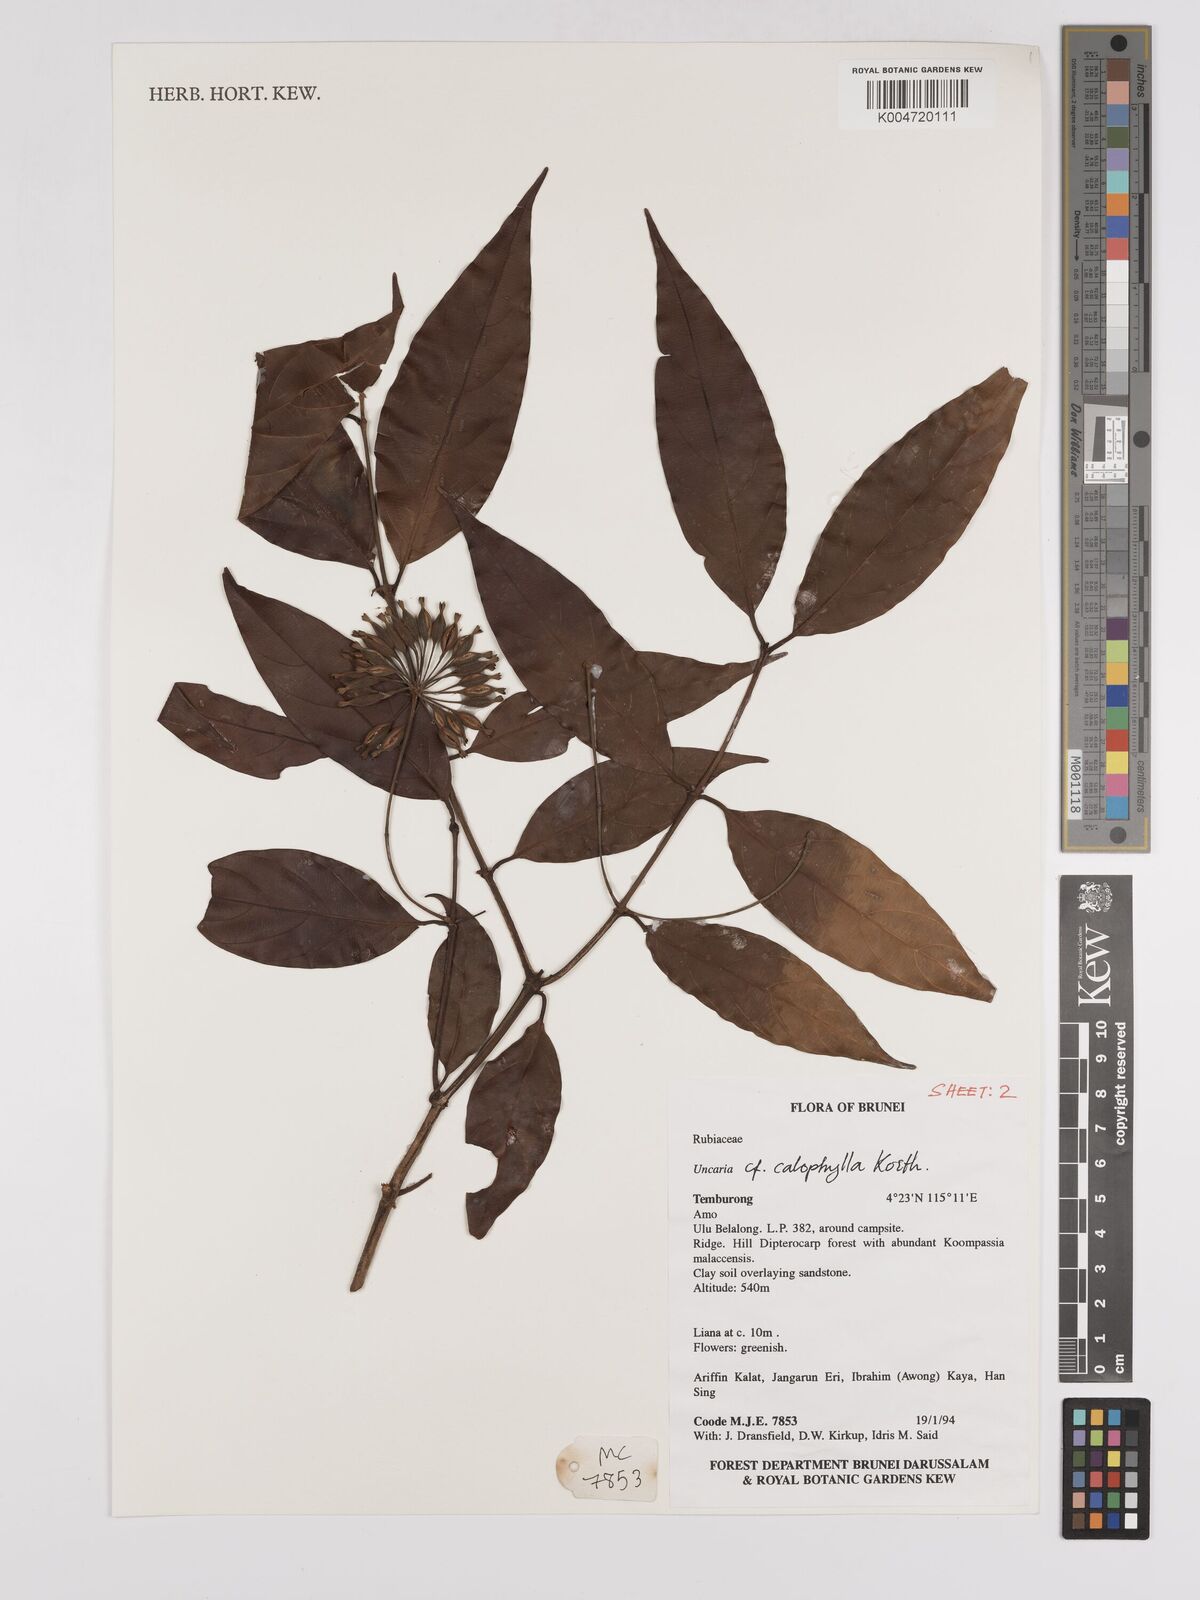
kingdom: Plantae
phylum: Tracheophyta
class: Magnoliopsida
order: Gentianales
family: Rubiaceae
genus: Uncaria
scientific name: Uncaria
